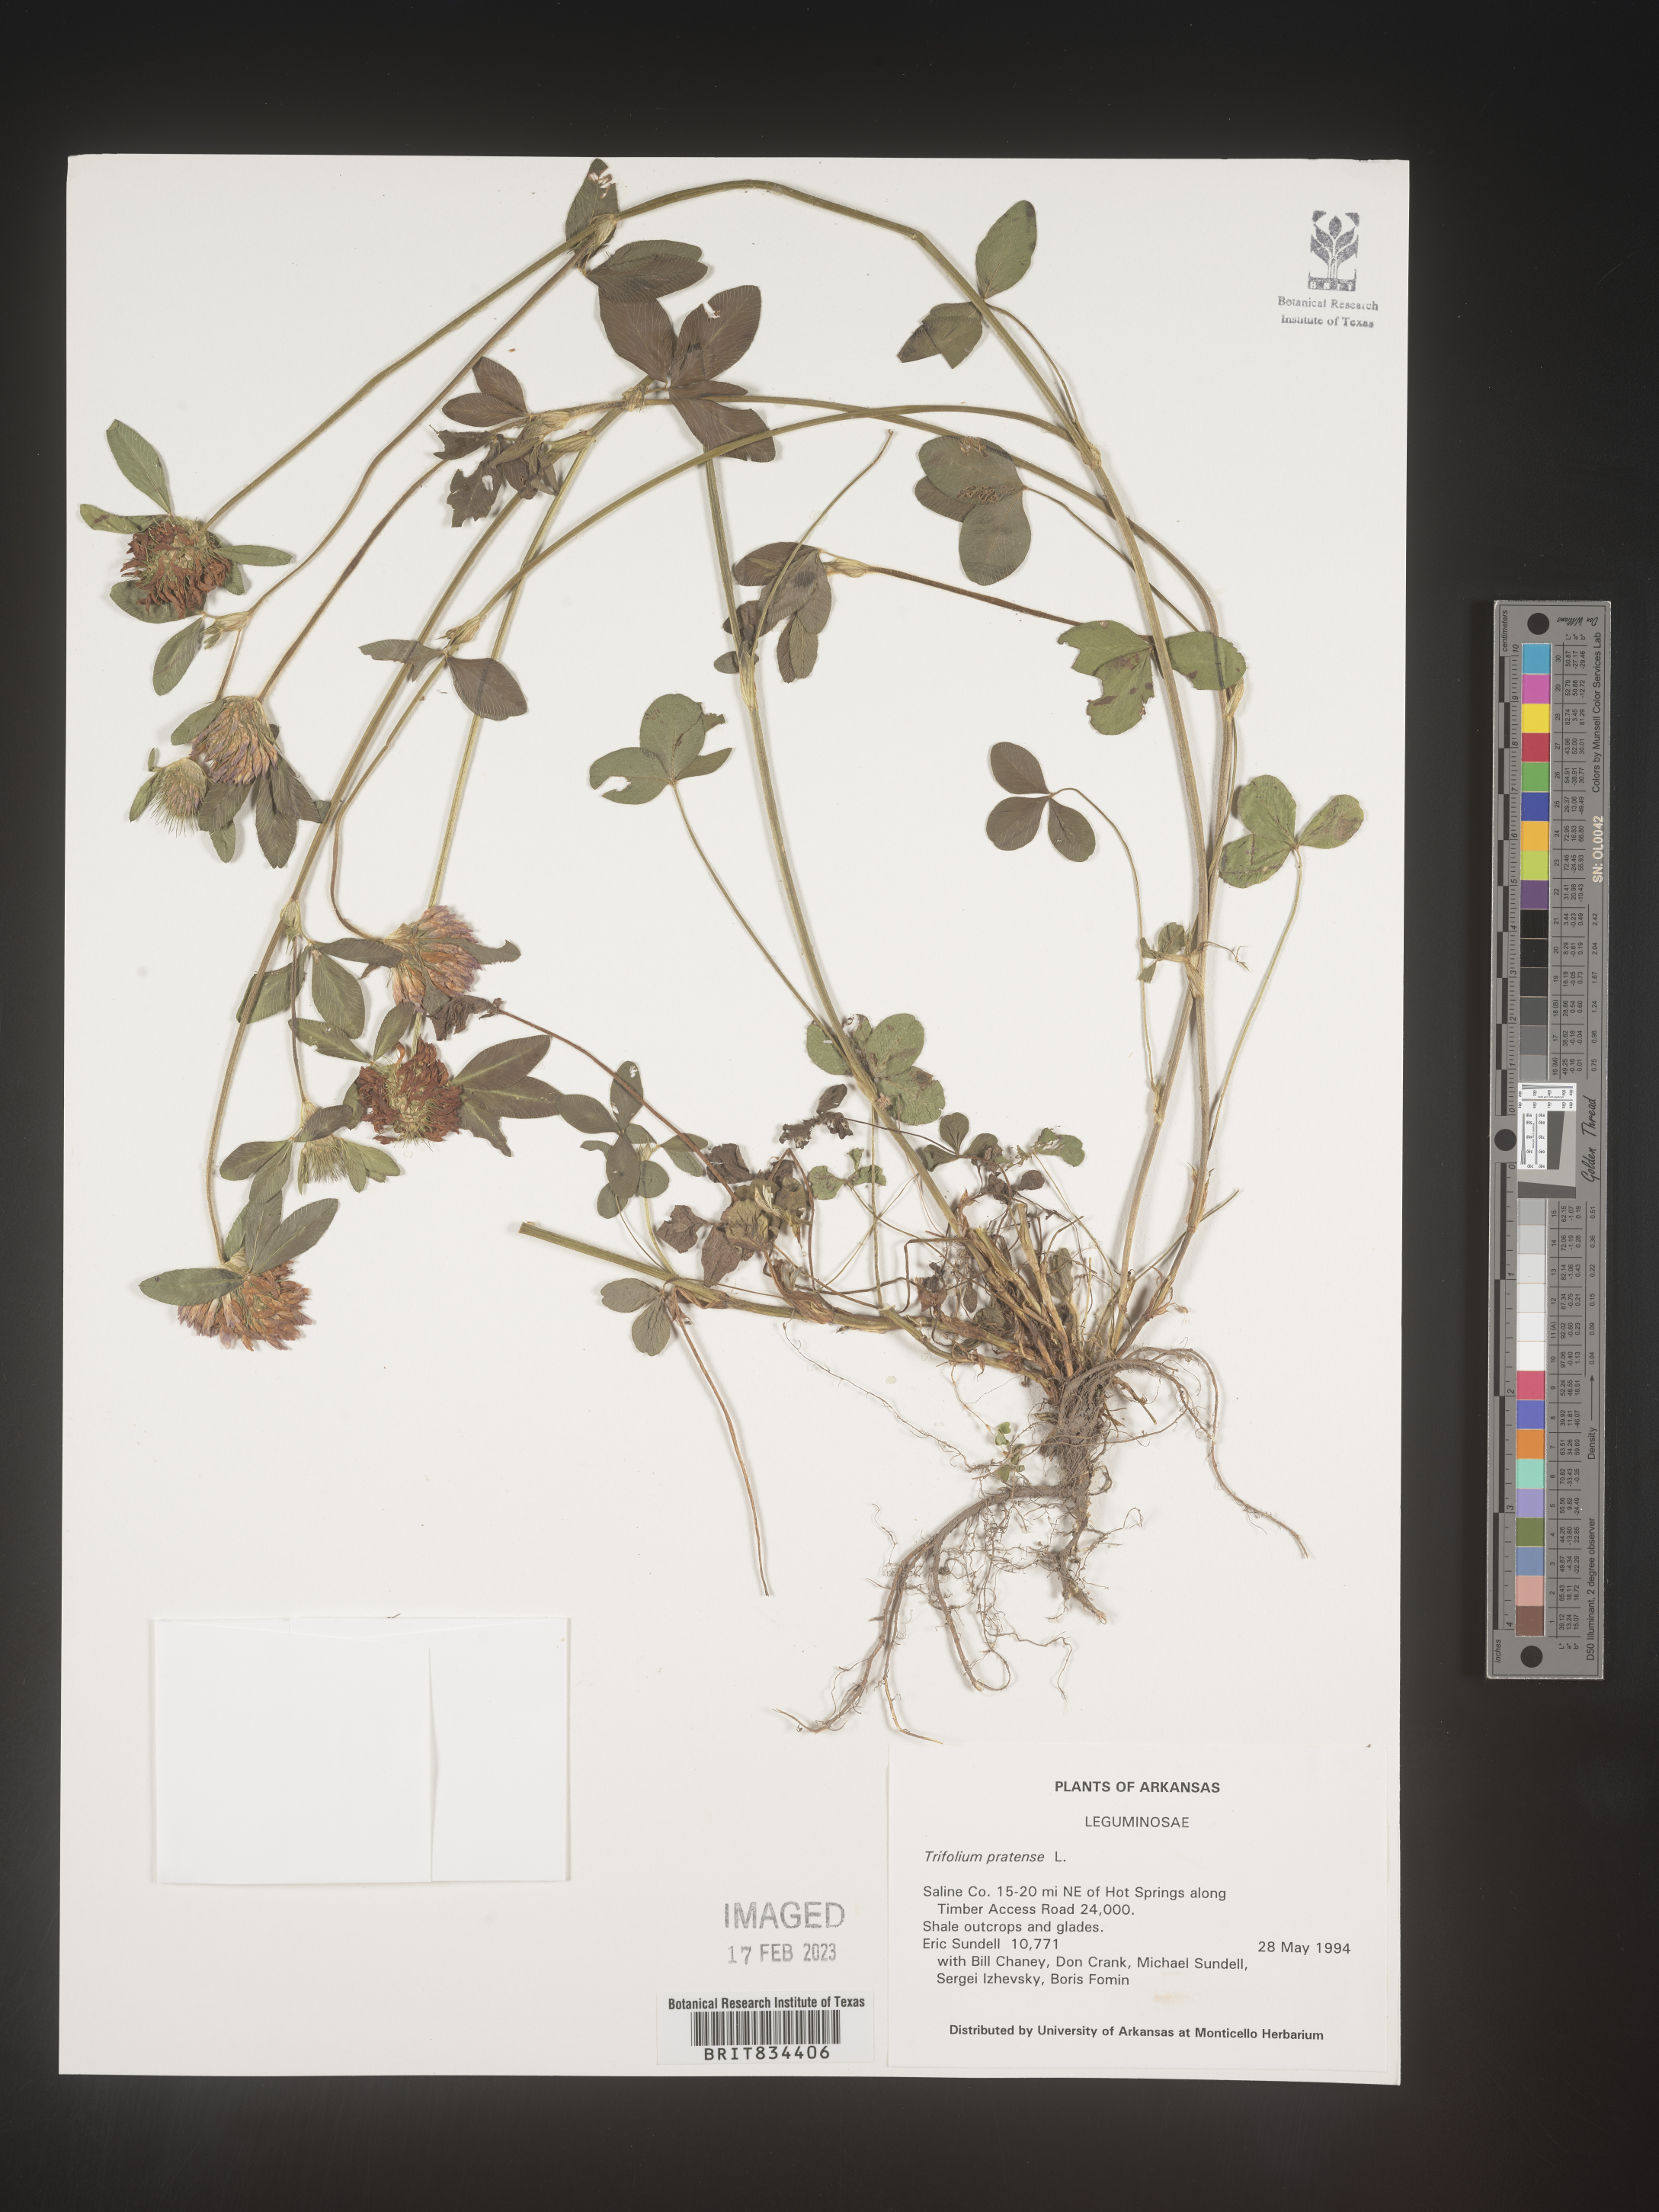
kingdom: Plantae
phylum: Tracheophyta
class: Magnoliopsida
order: Fabales
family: Fabaceae
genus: Trifolium
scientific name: Trifolium pratense
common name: Red clover
